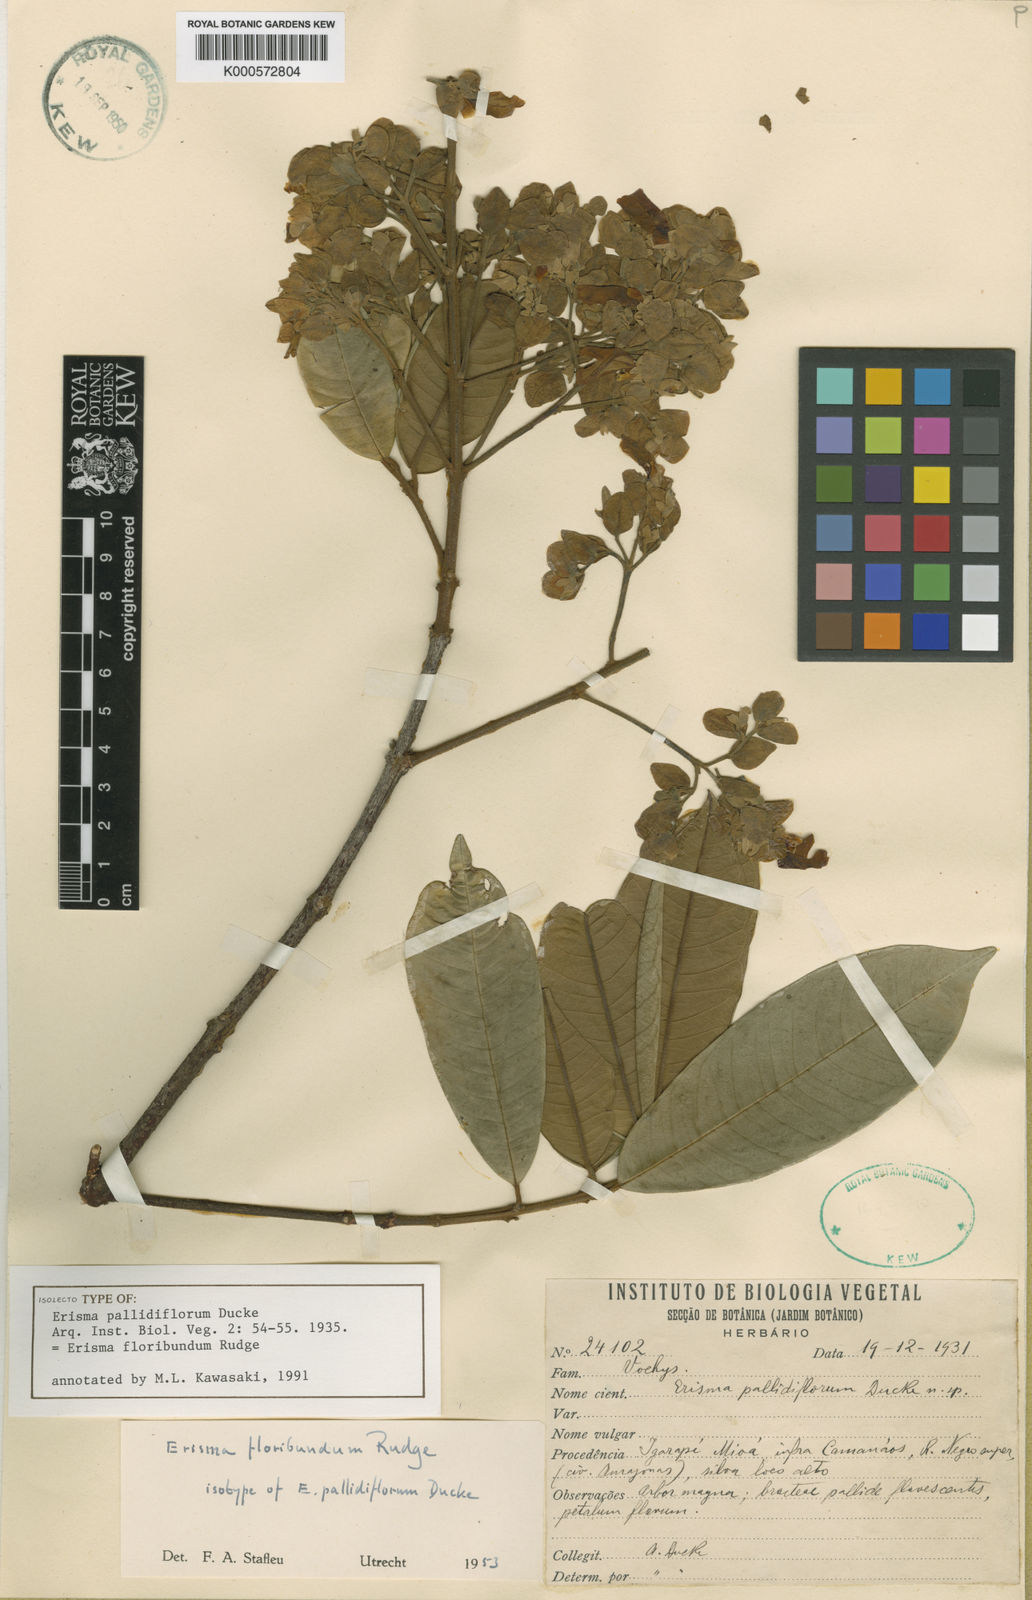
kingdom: Plantae
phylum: Tracheophyta
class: Magnoliopsida
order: Myrtales
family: Vochysiaceae
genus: Erisma
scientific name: Erisma floribundum
